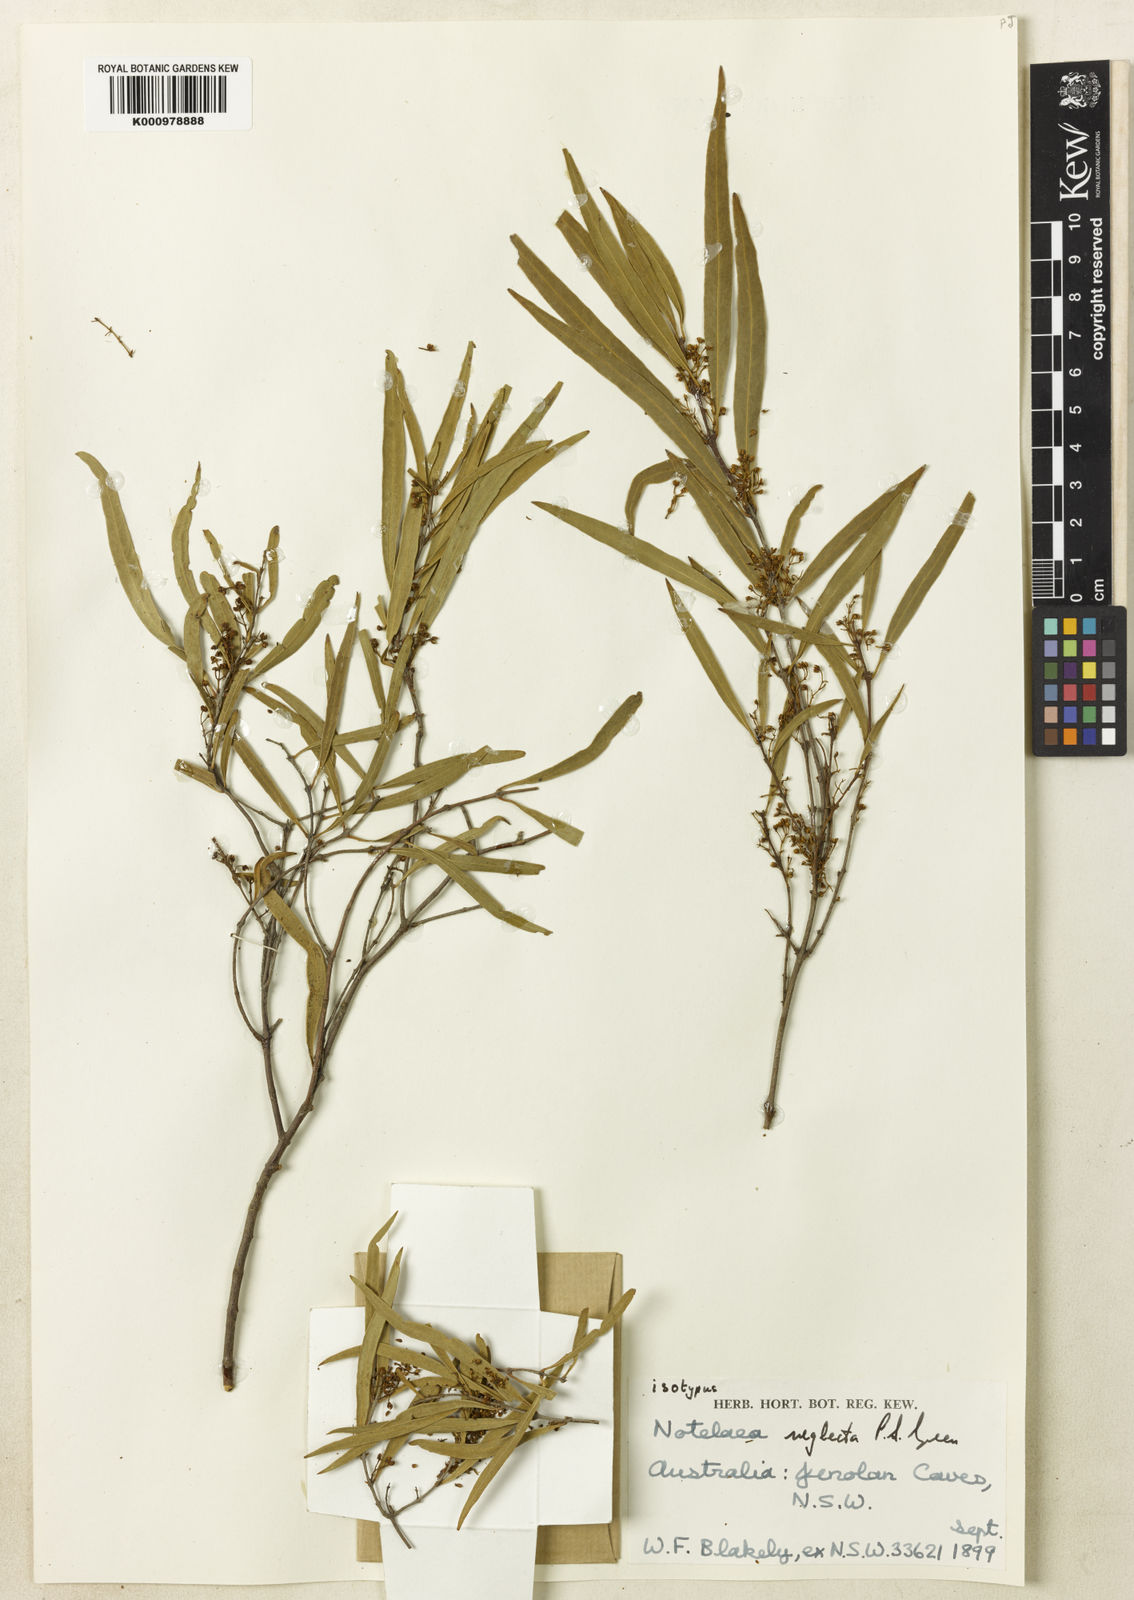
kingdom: Plantae
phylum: Tracheophyta
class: Magnoliopsida
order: Lamiales
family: Oleaceae
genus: Notelaea
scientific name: Notelaea neglecta
